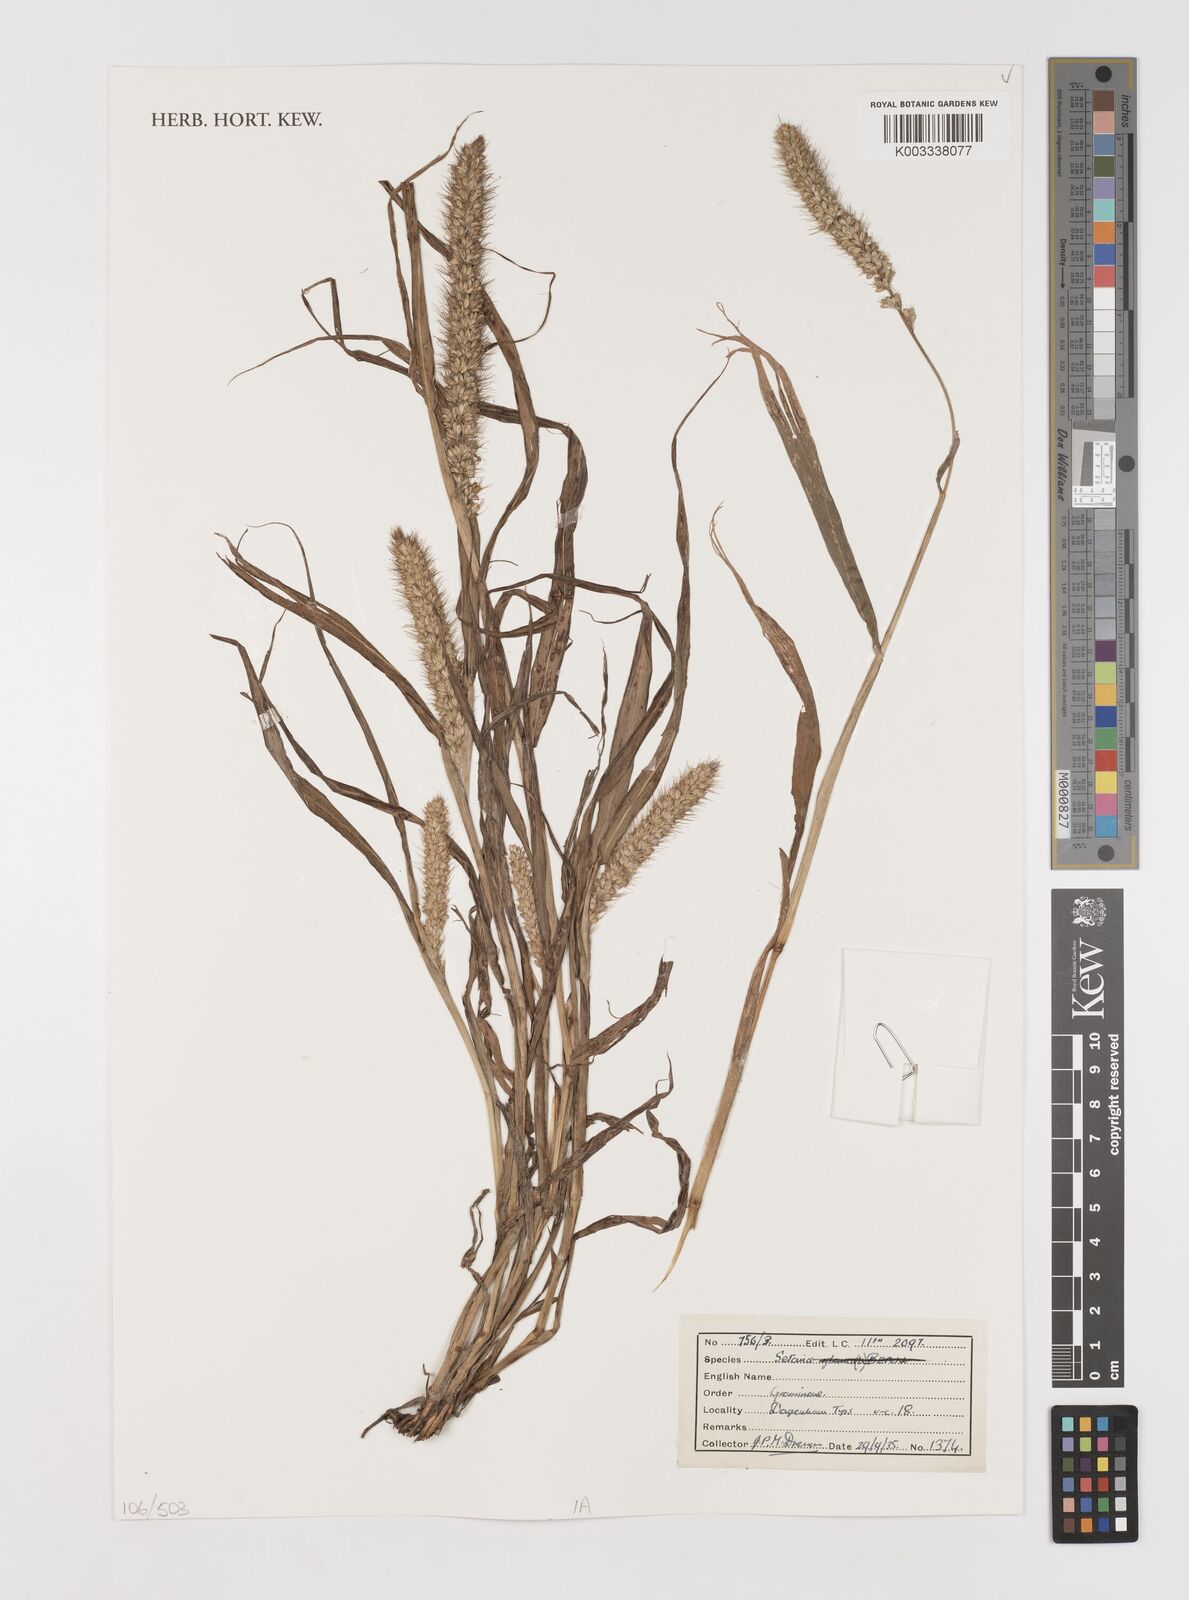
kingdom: Plantae
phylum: Tracheophyta
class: Liliopsida
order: Poales
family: Poaceae
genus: Setaria
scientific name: Setaria
